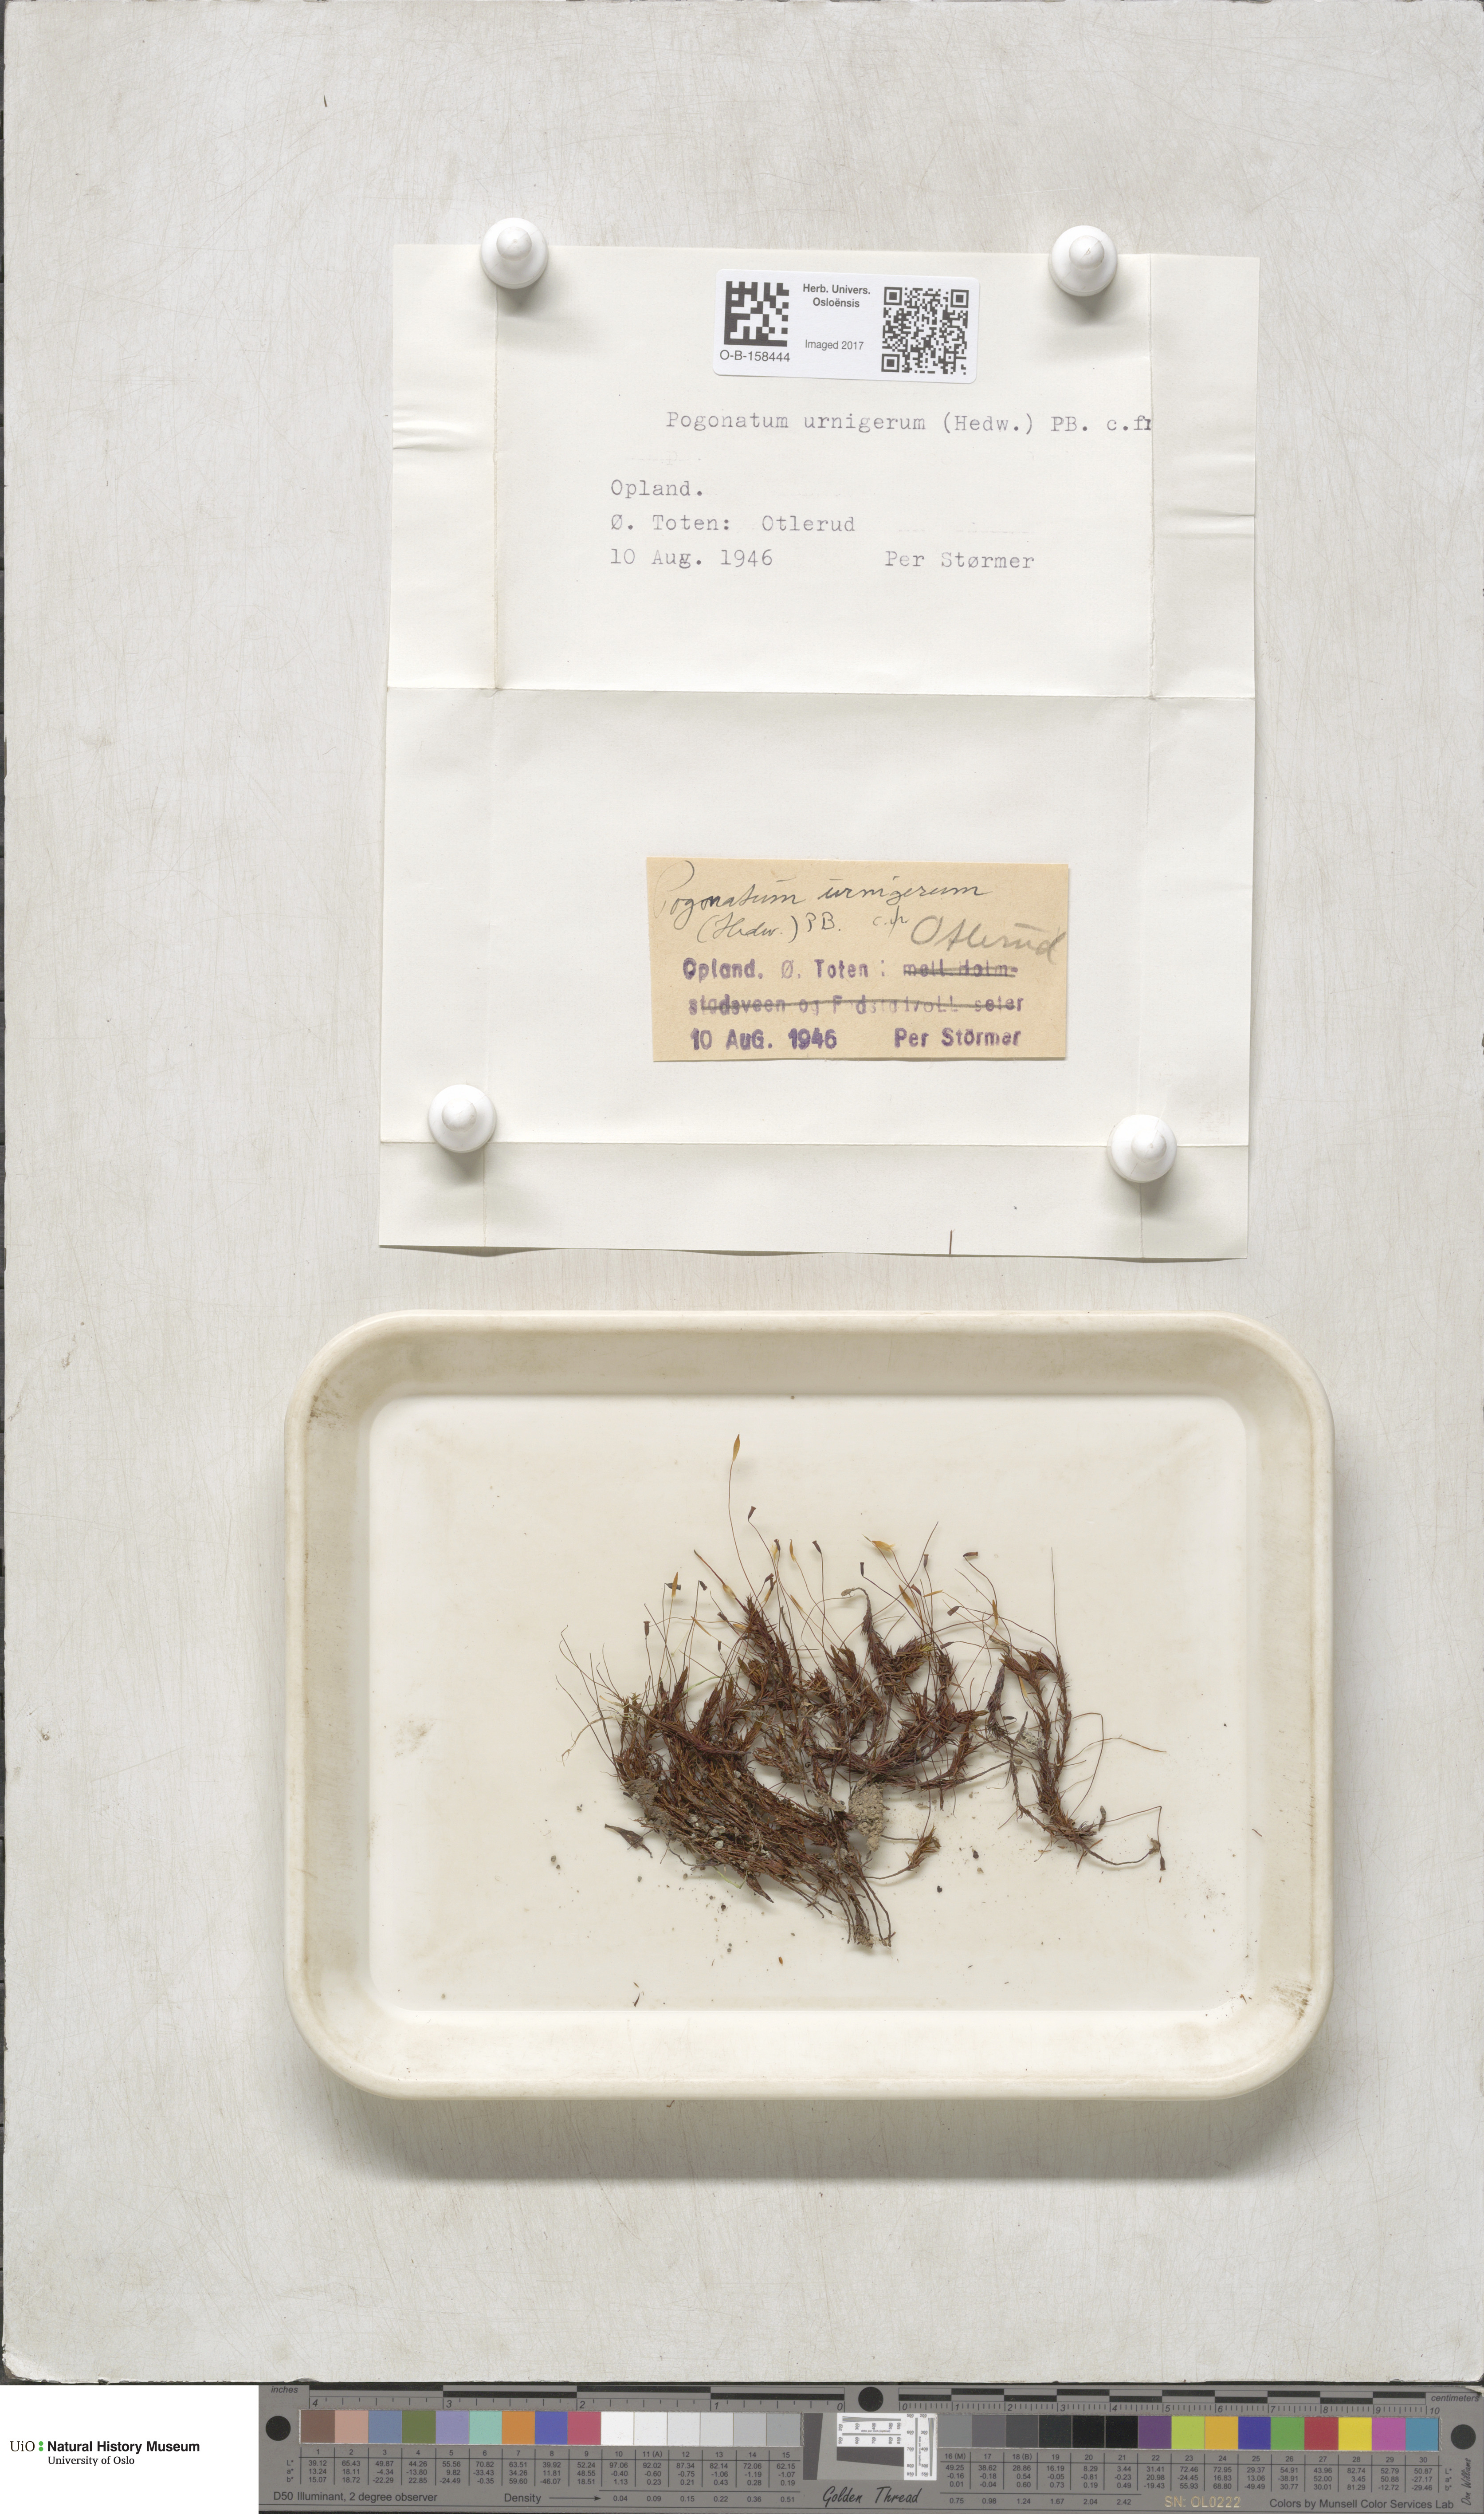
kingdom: Plantae
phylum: Bryophyta
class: Polytrichopsida
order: Polytrichales
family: Polytrichaceae
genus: Pogonatum
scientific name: Pogonatum urnigerum
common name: Urn hair moss
